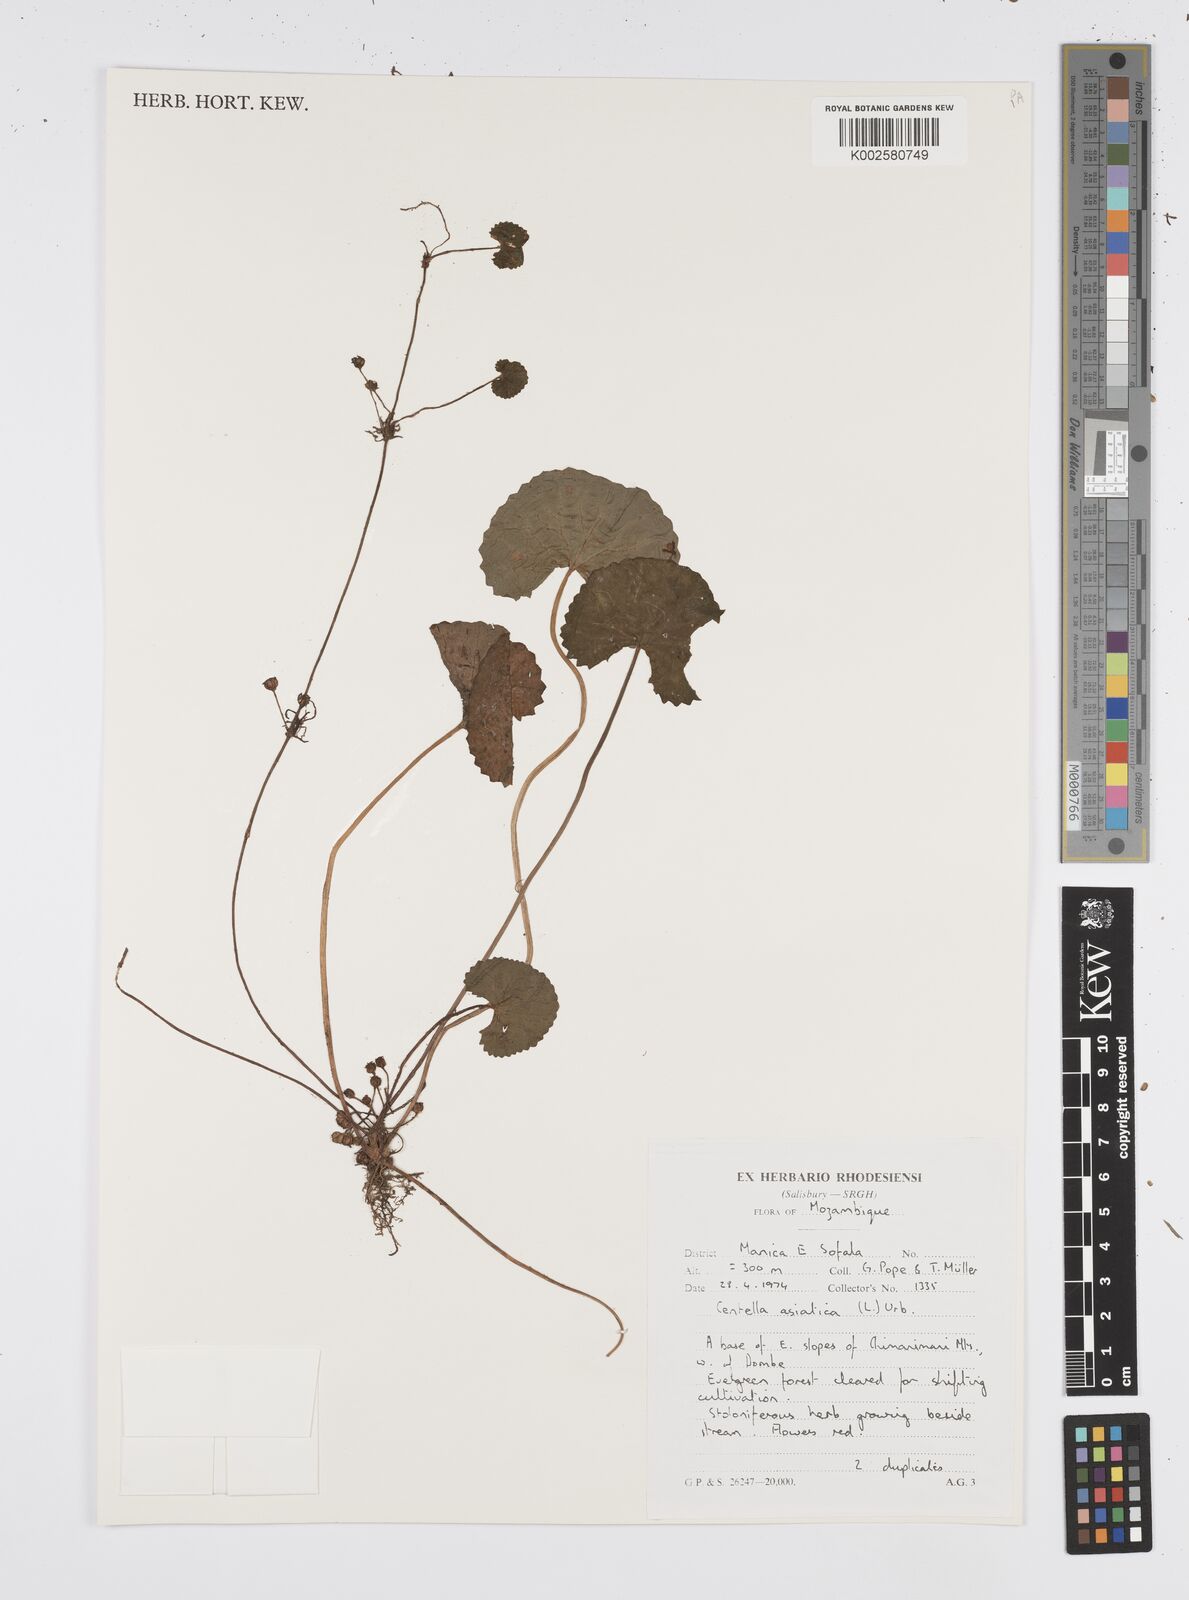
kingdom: Plantae
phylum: Tracheophyta
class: Magnoliopsida
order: Apiales
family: Apiaceae
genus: Centella
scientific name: Centella asiatica
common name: Spadeleaf
